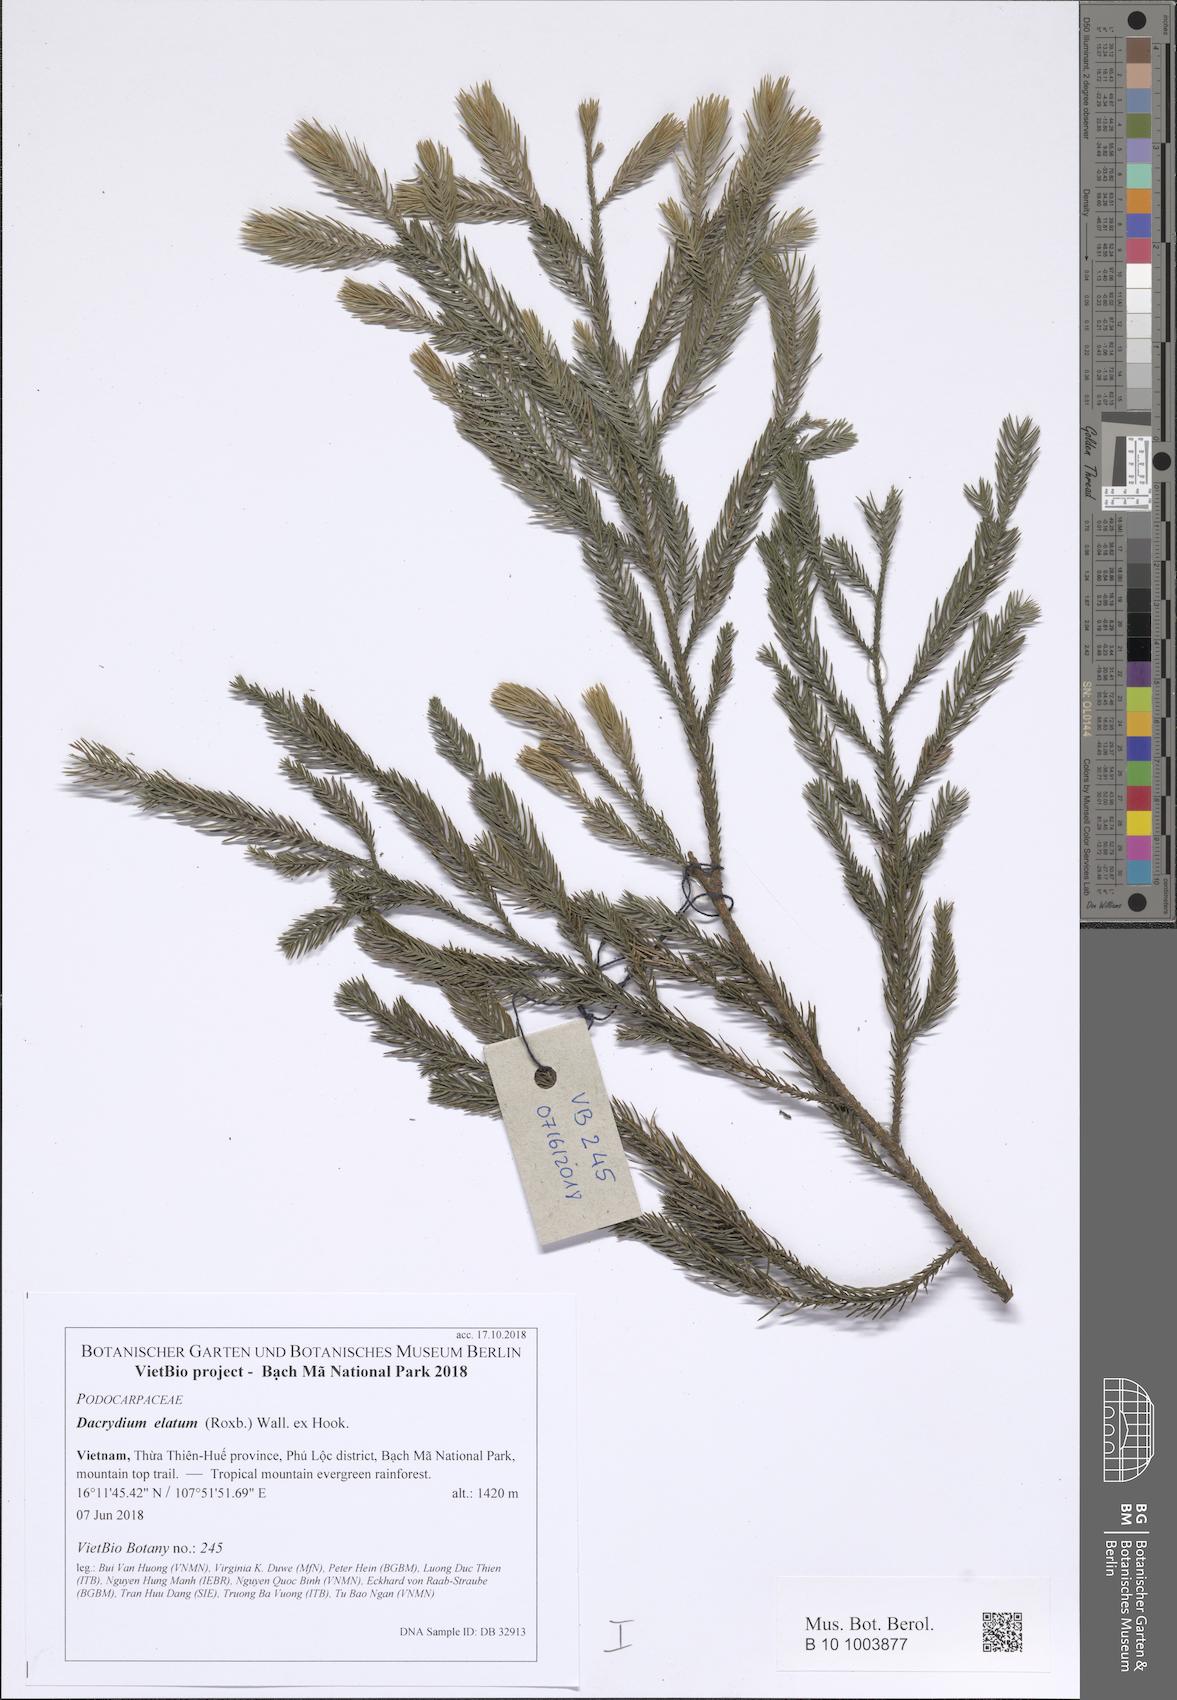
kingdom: Plantae
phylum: Tracheophyta
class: Pinopsida
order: Pinales
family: Podocarpaceae
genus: Dacrydium
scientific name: Dacrydium elatum
